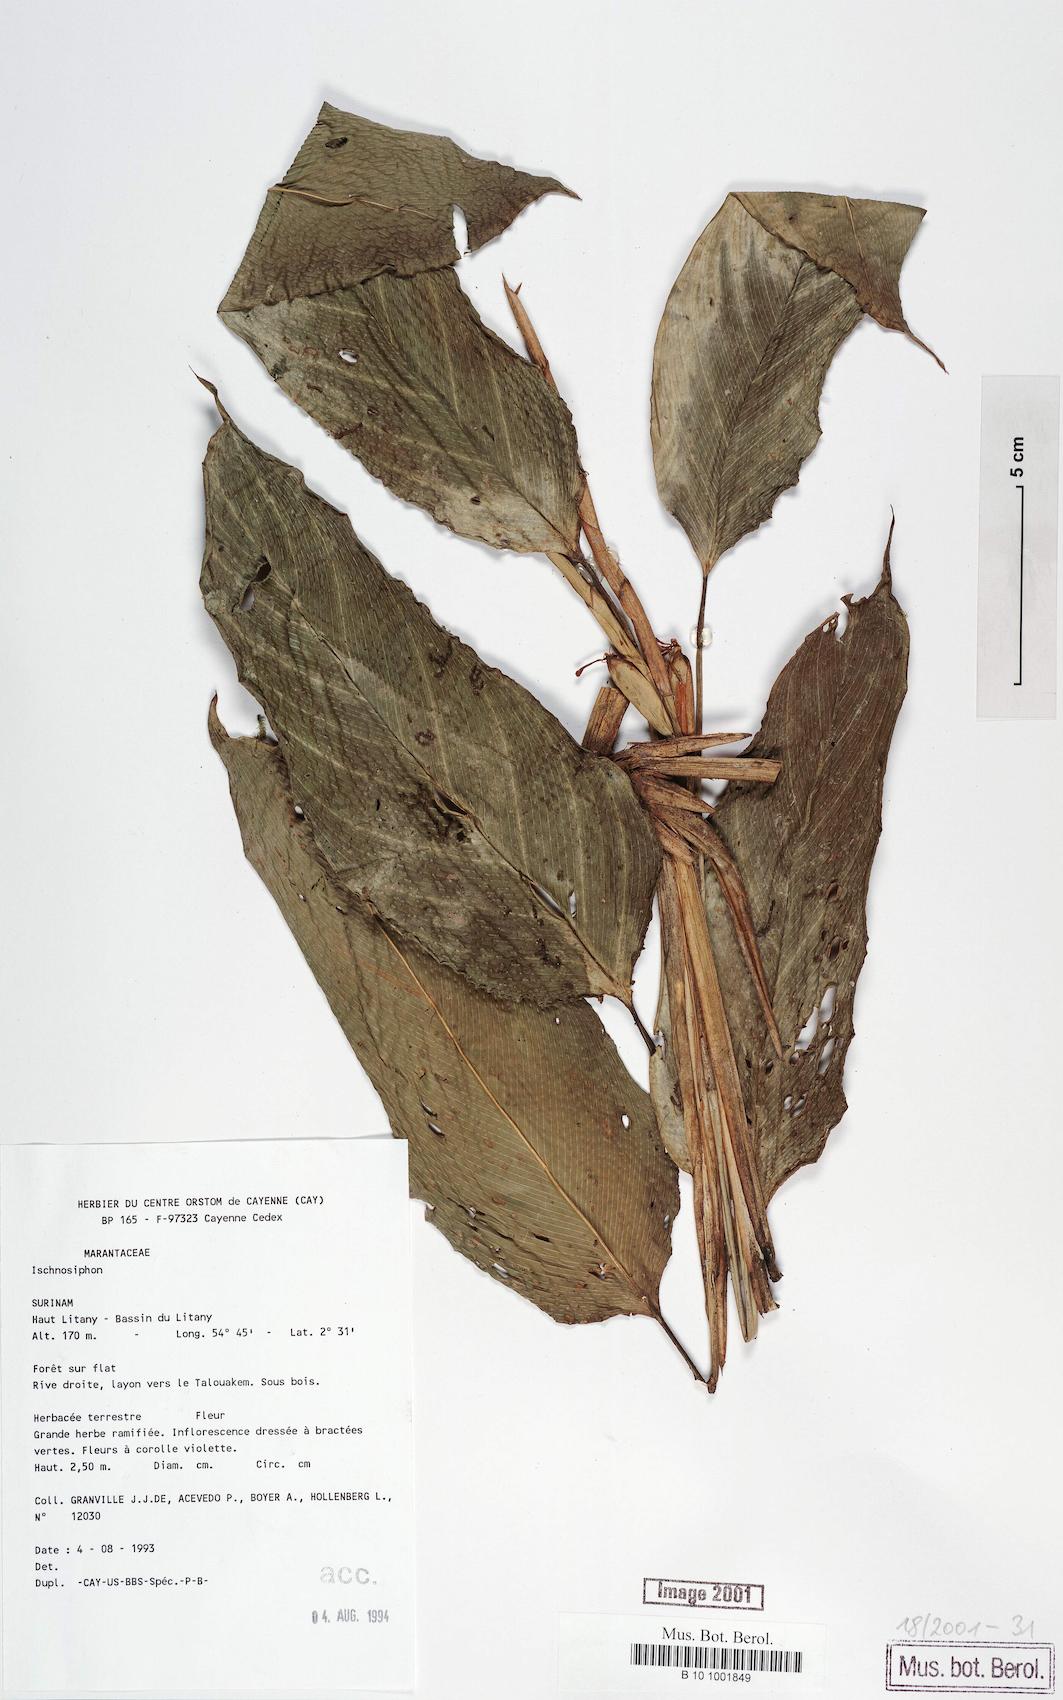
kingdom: Plantae
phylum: Tracheophyta
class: Liliopsida
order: Zingiberales
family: Marantaceae
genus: Ischnosiphon
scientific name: Ischnosiphon
